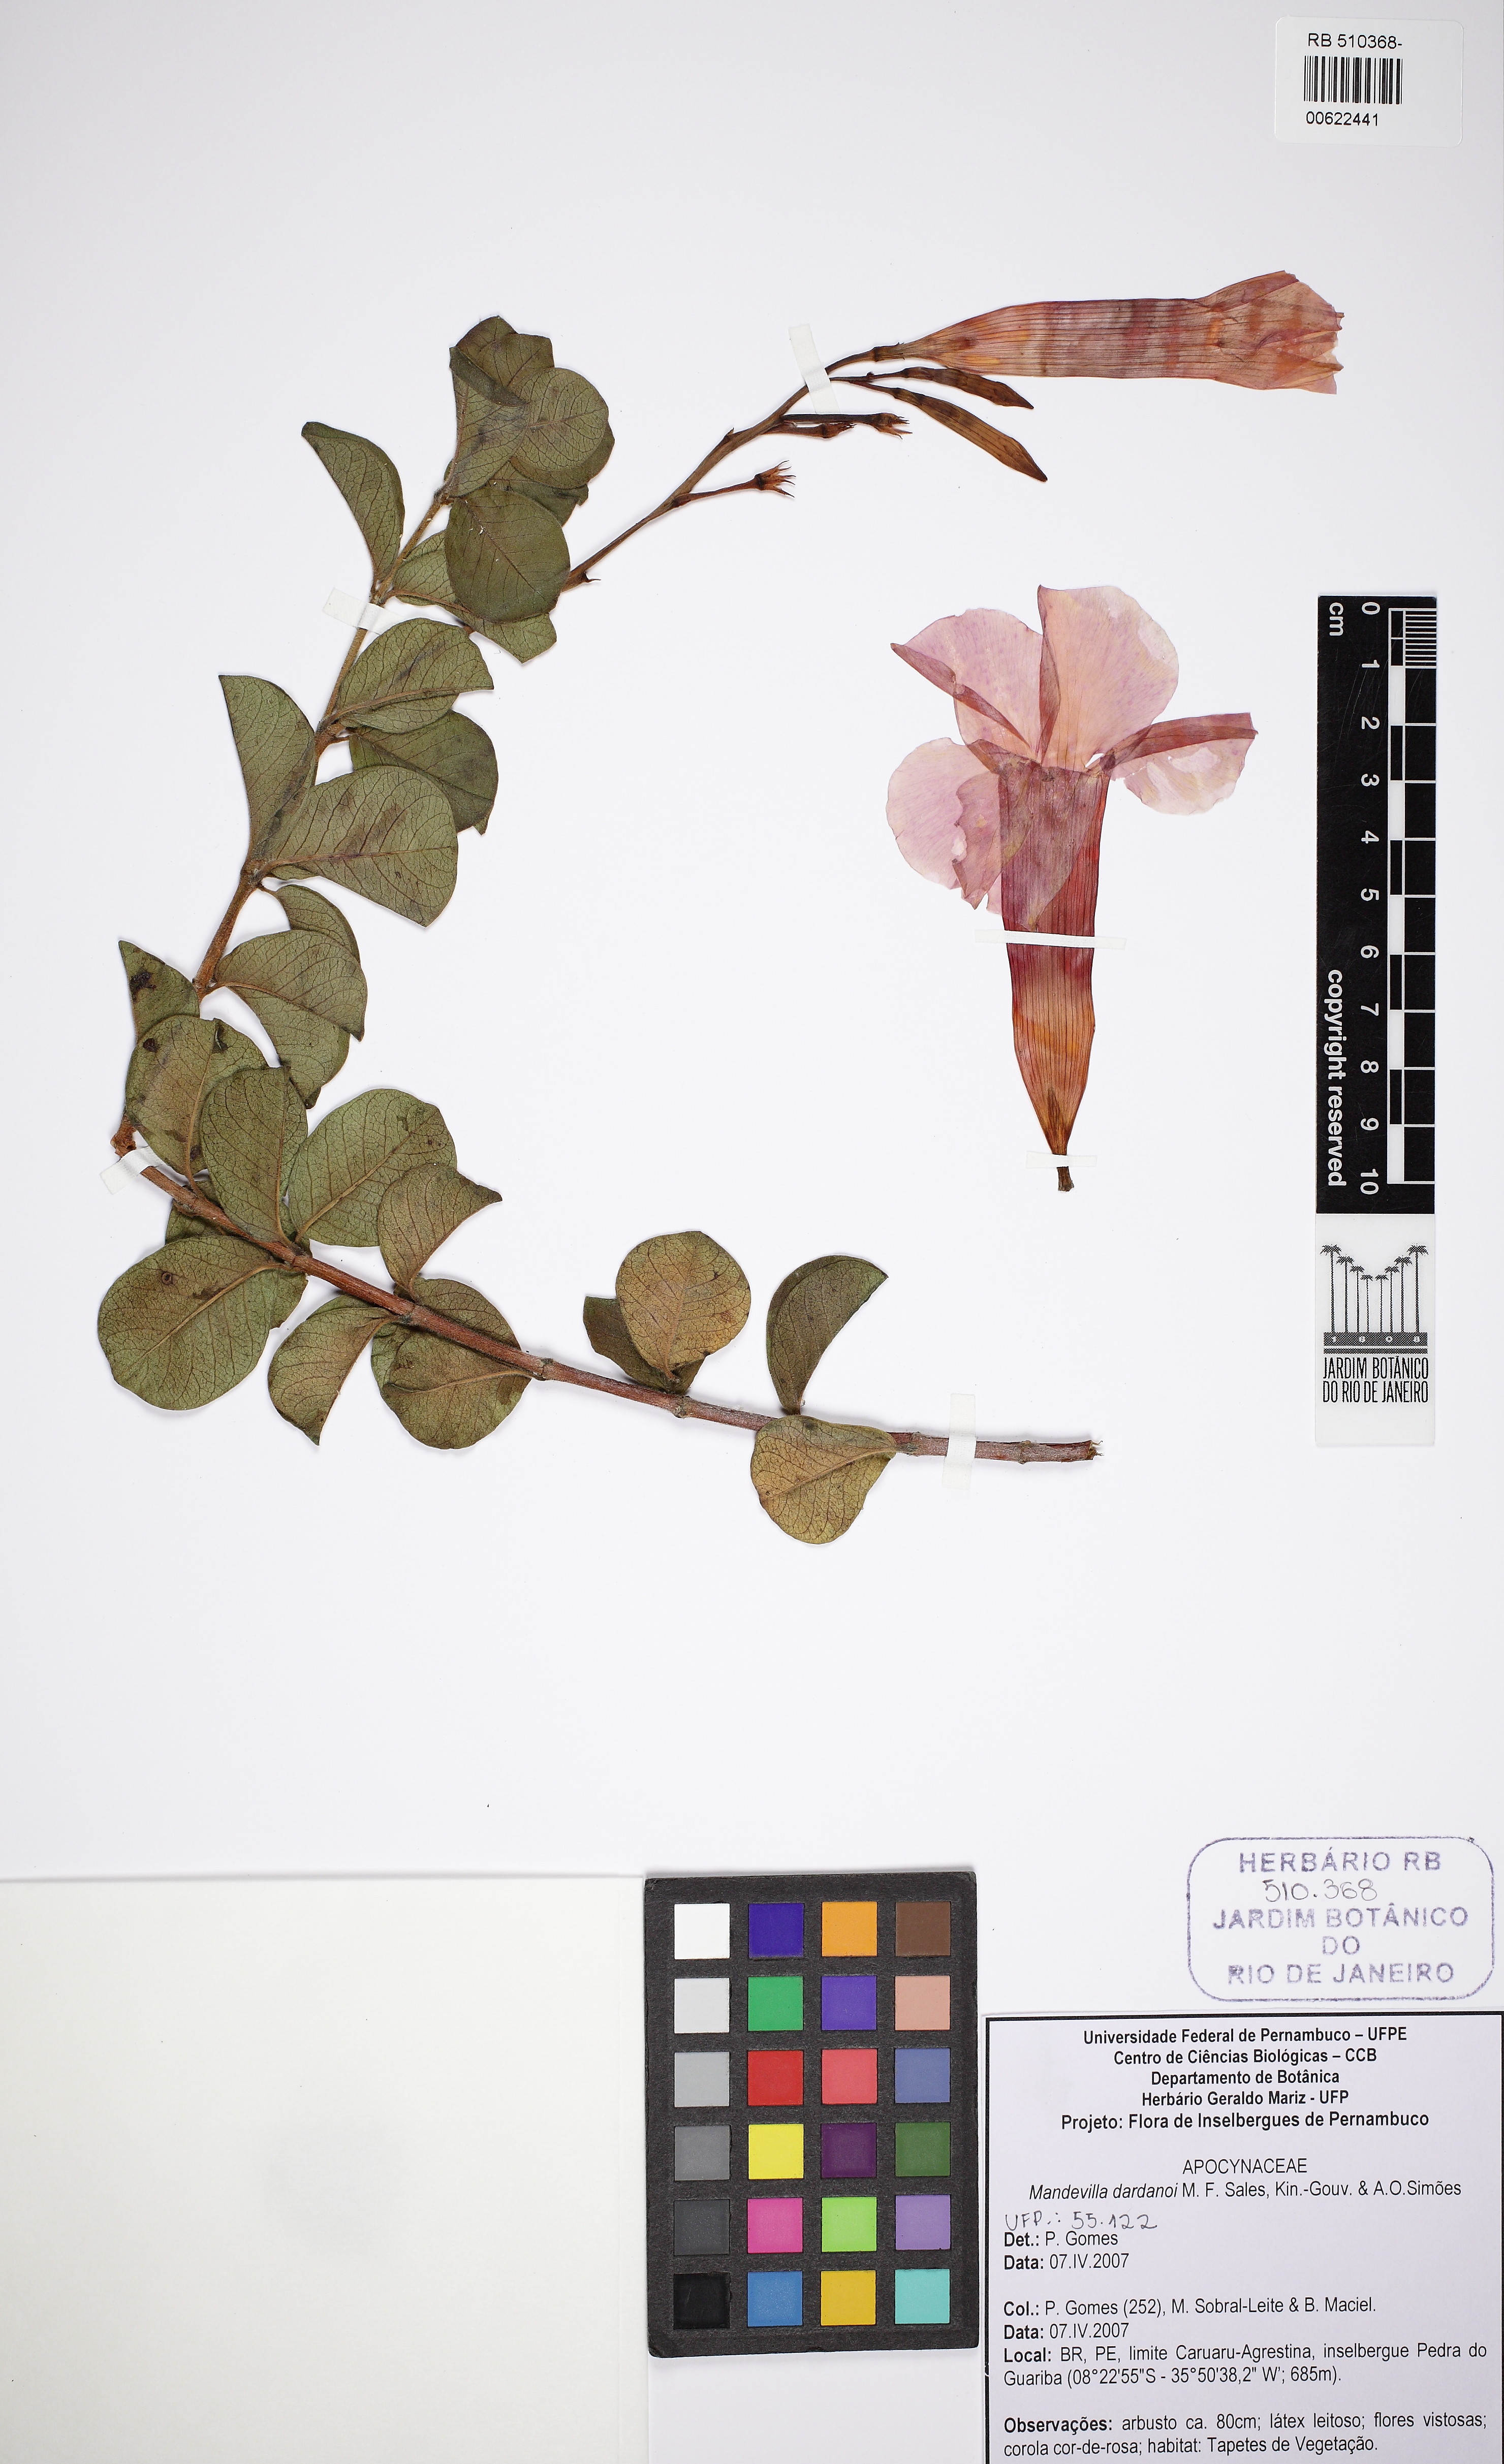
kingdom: Plantae
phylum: Tracheophyta
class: Magnoliopsida
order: Gentianales
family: Apocynaceae
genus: Mandevilla
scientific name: Mandevilla dardanoi
